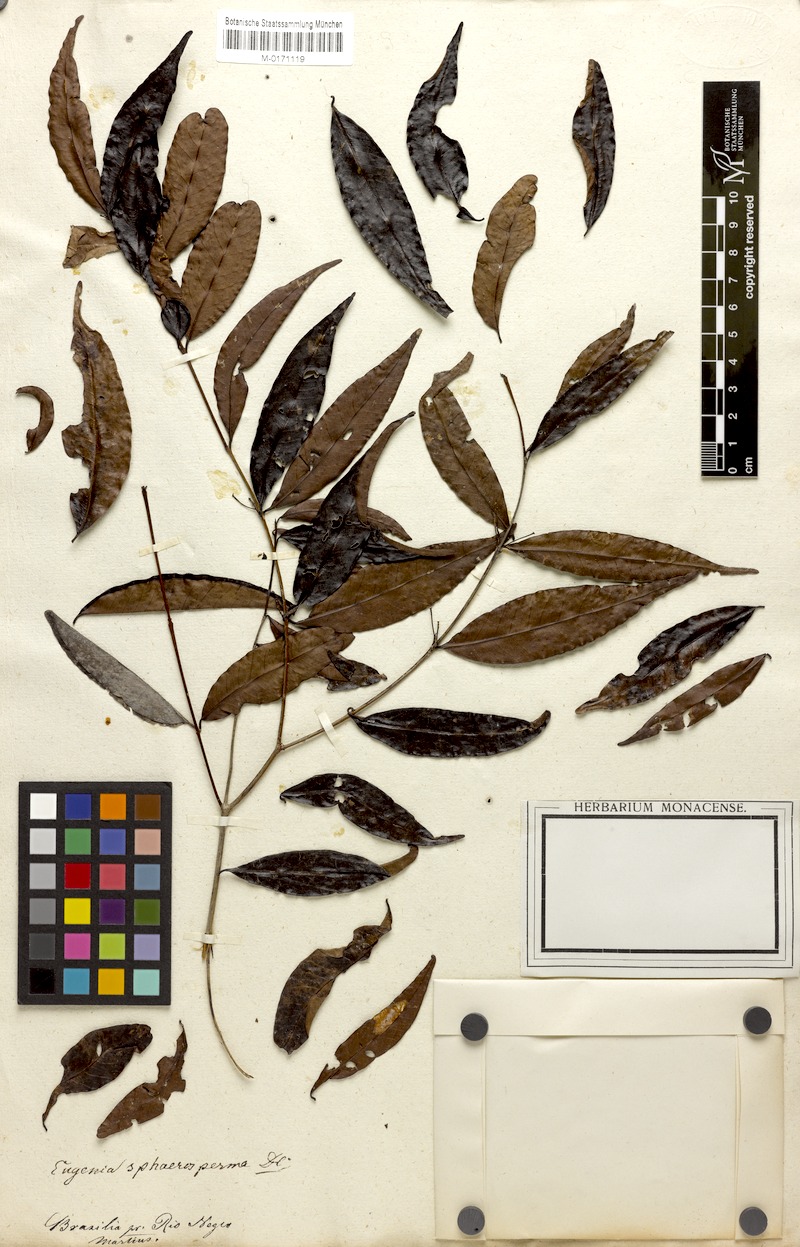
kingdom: Plantae
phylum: Tracheophyta
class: Magnoliopsida
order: Myrtales
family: Myrtaceae
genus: Eugenia
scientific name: Eugenia egensis
